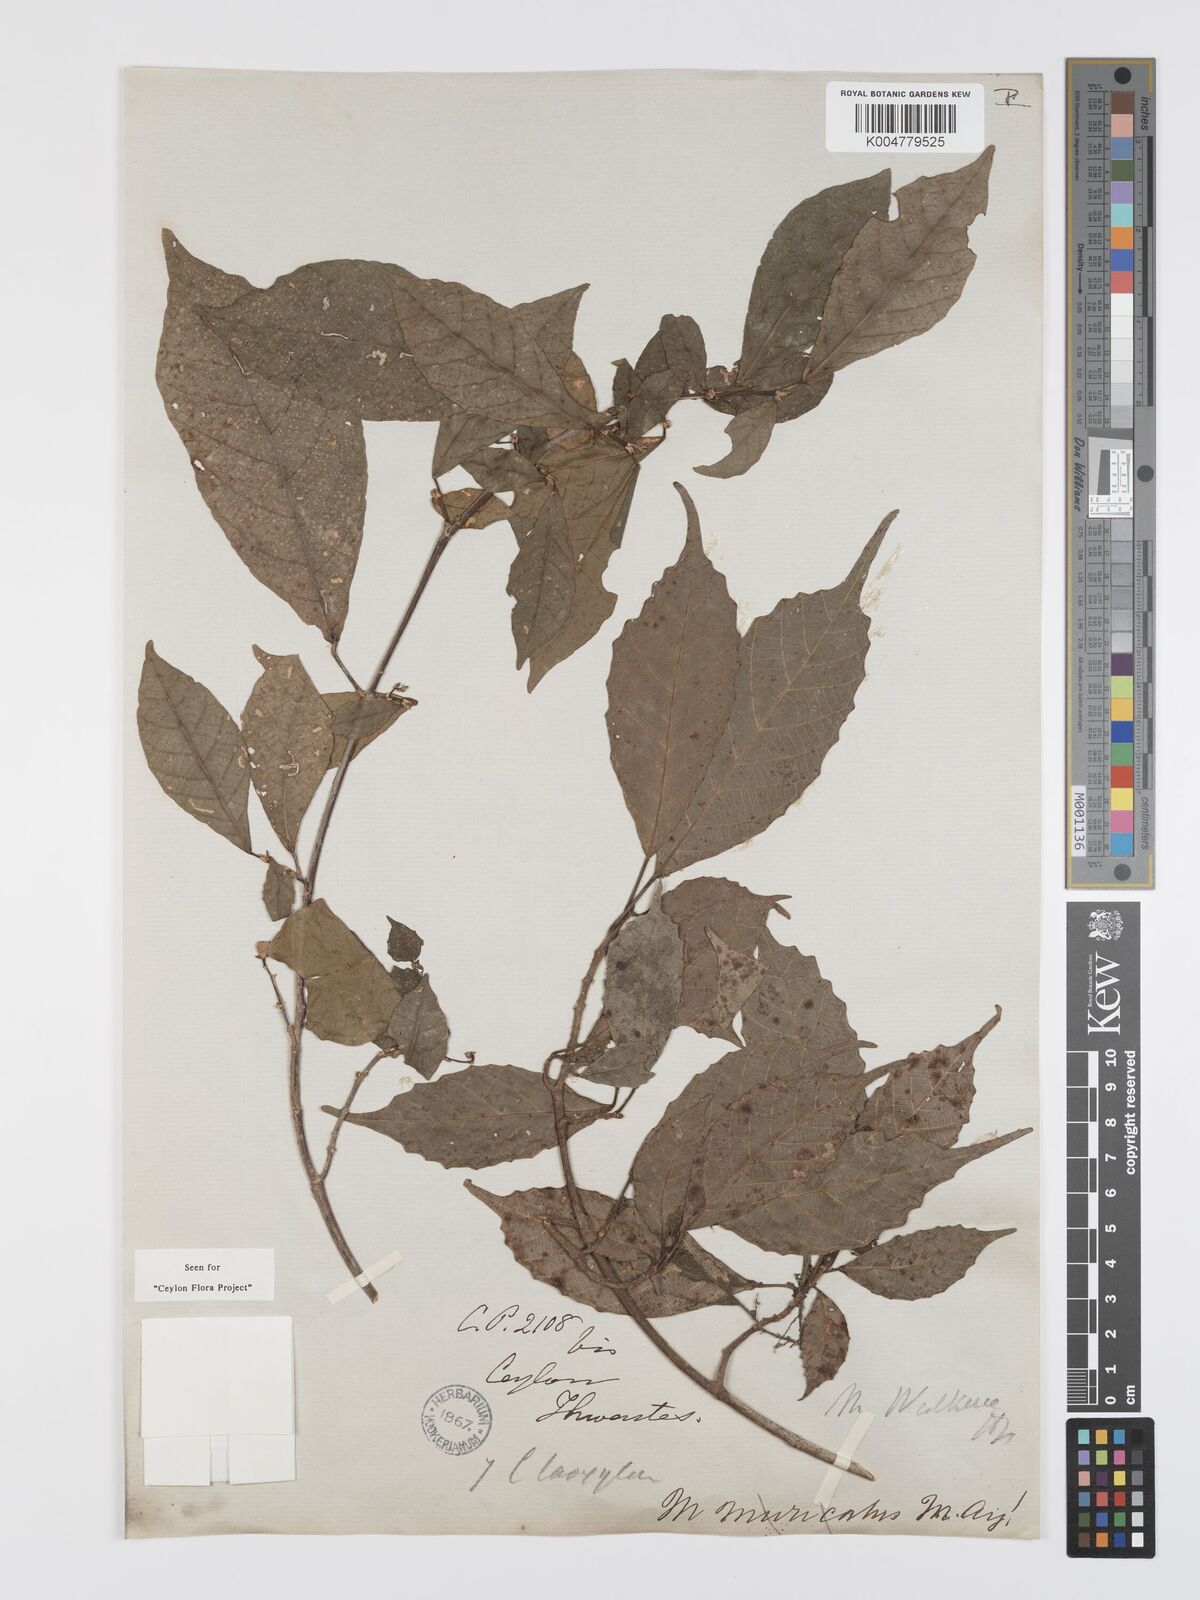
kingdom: Plantae
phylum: Tracheophyta
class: Magnoliopsida
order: Malpighiales
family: Euphorbiaceae
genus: Mallotus
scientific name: Mallotus resinosus
